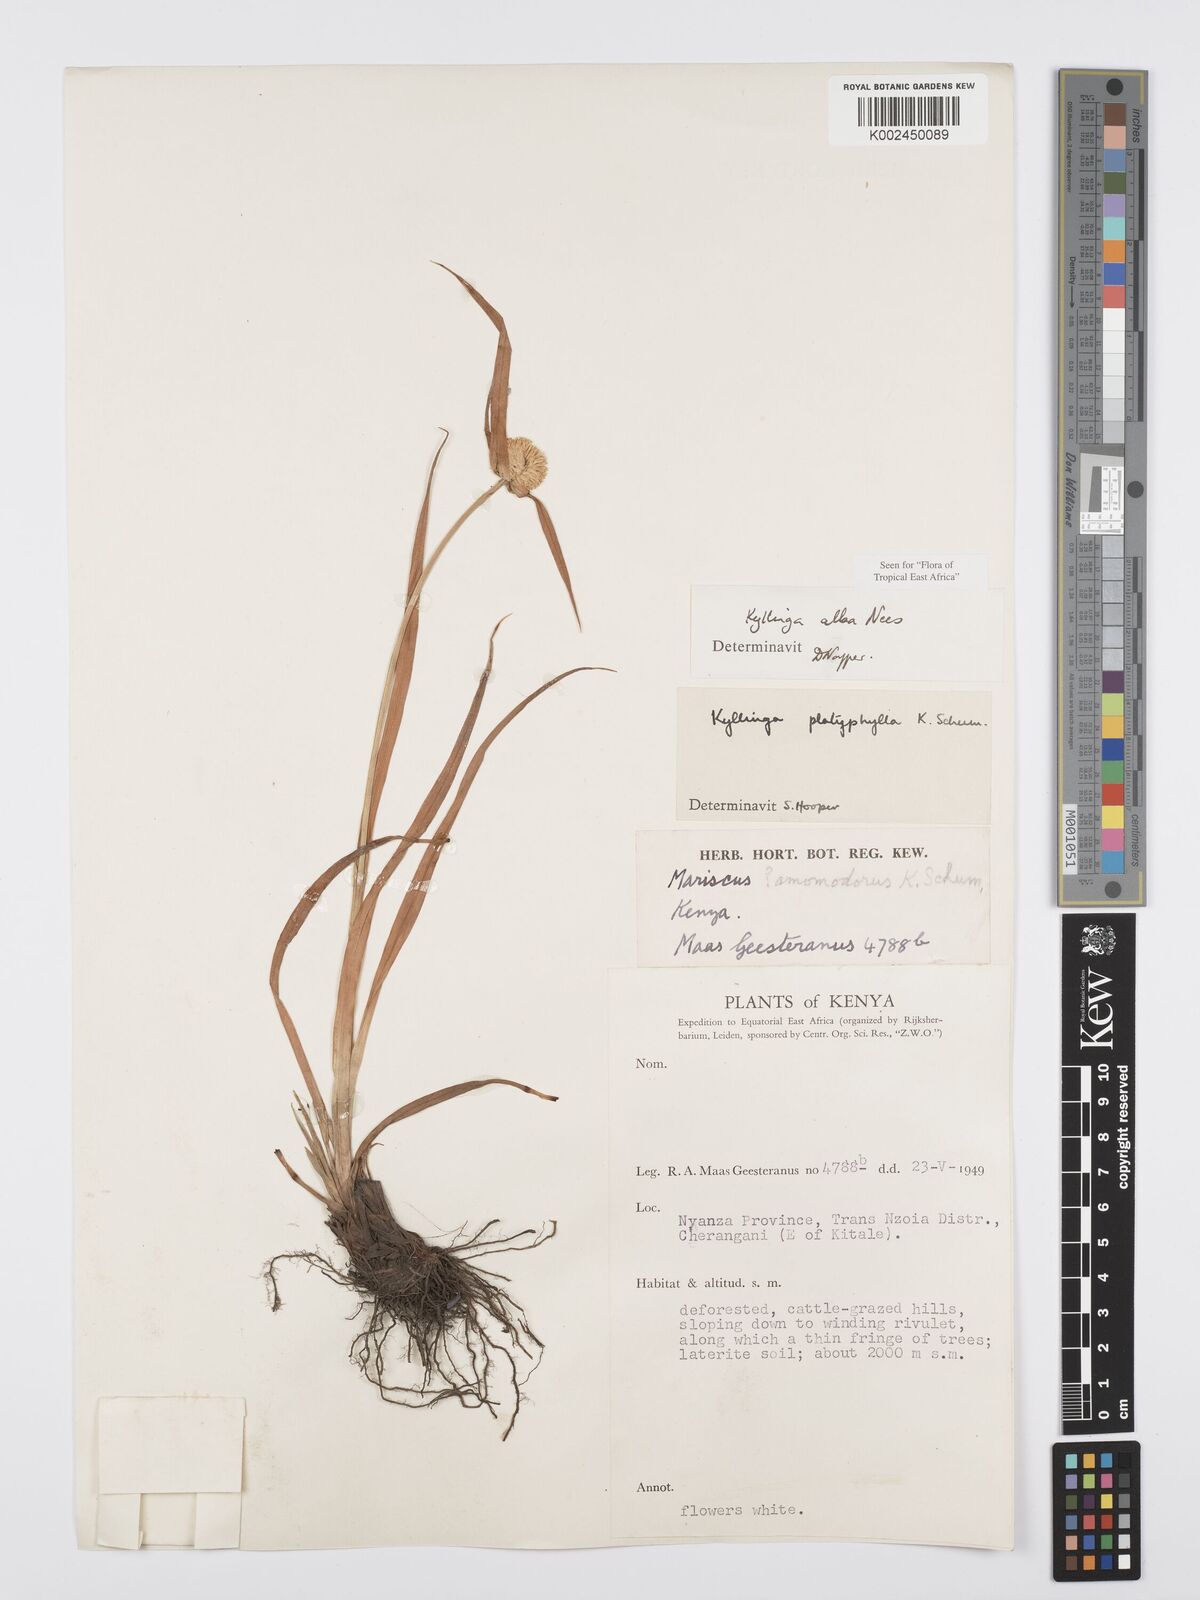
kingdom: Plantae
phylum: Tracheophyta
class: Liliopsida
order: Poales
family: Cyperaceae
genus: Cyperus
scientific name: Cyperus
